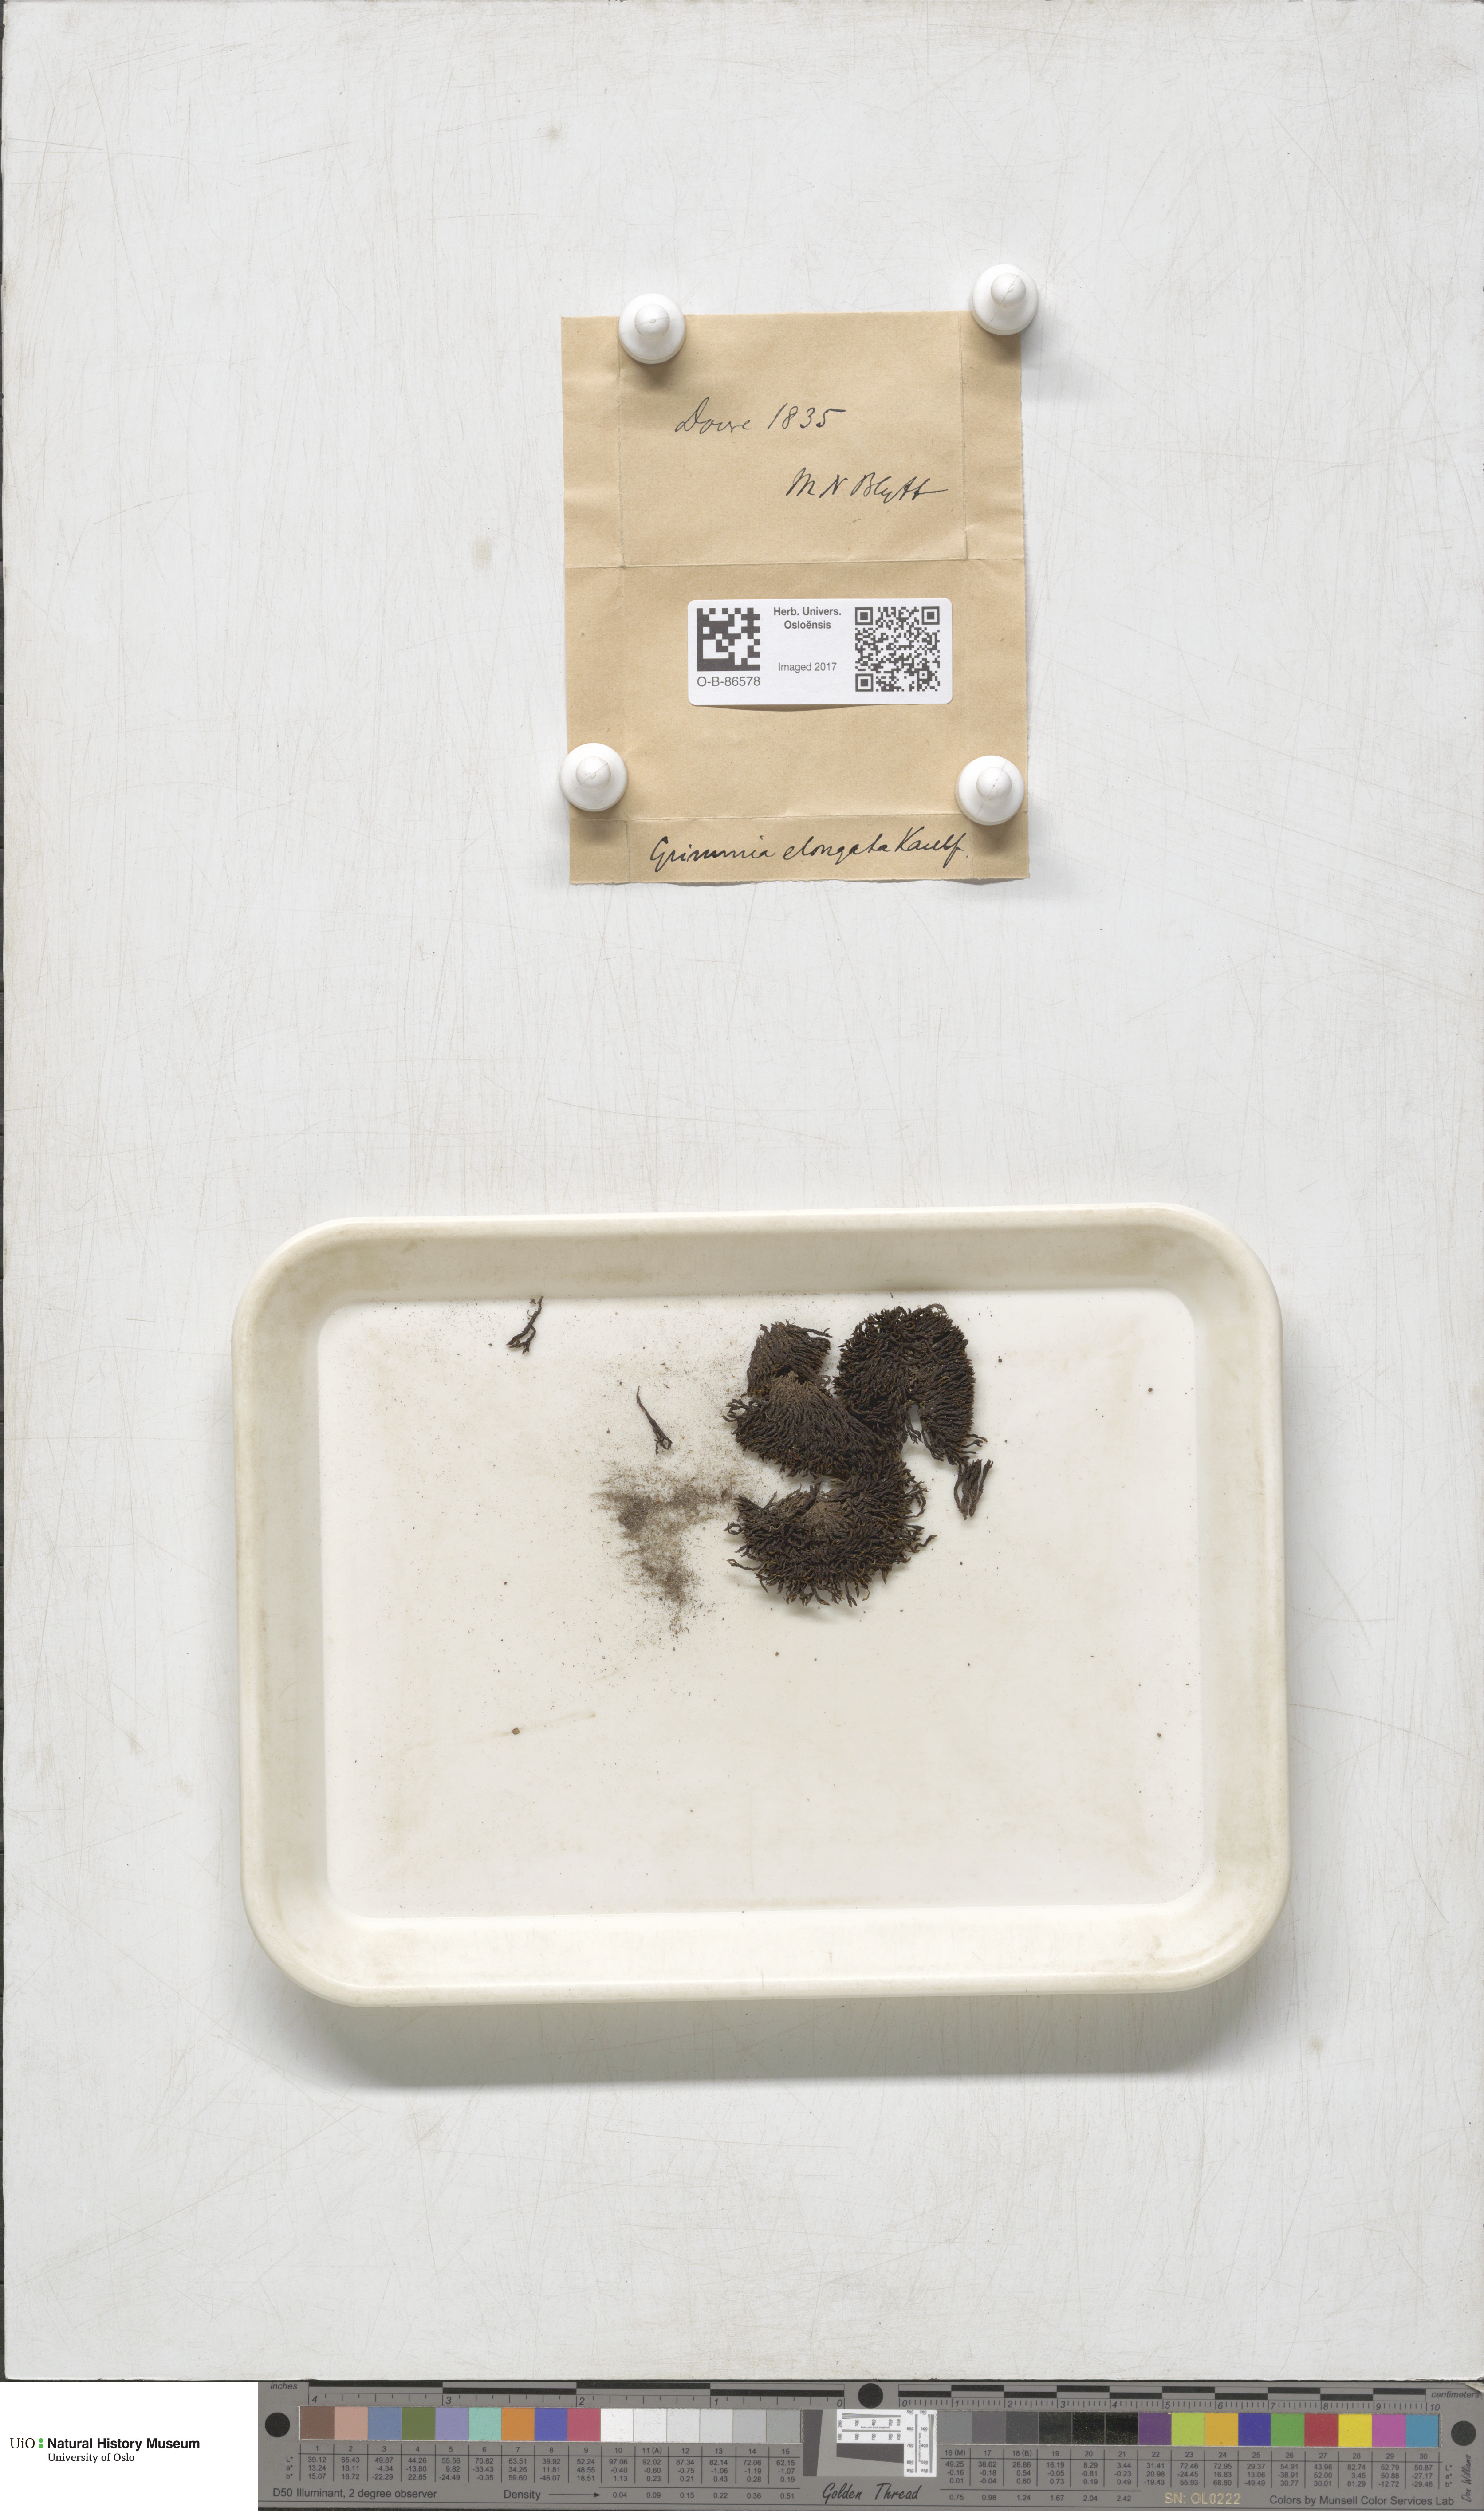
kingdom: Plantae
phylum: Bryophyta
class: Bryopsida
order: Grimmiales
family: Grimmiaceae
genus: Grimmia
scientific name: Grimmia elongata
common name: Brown grimmia
